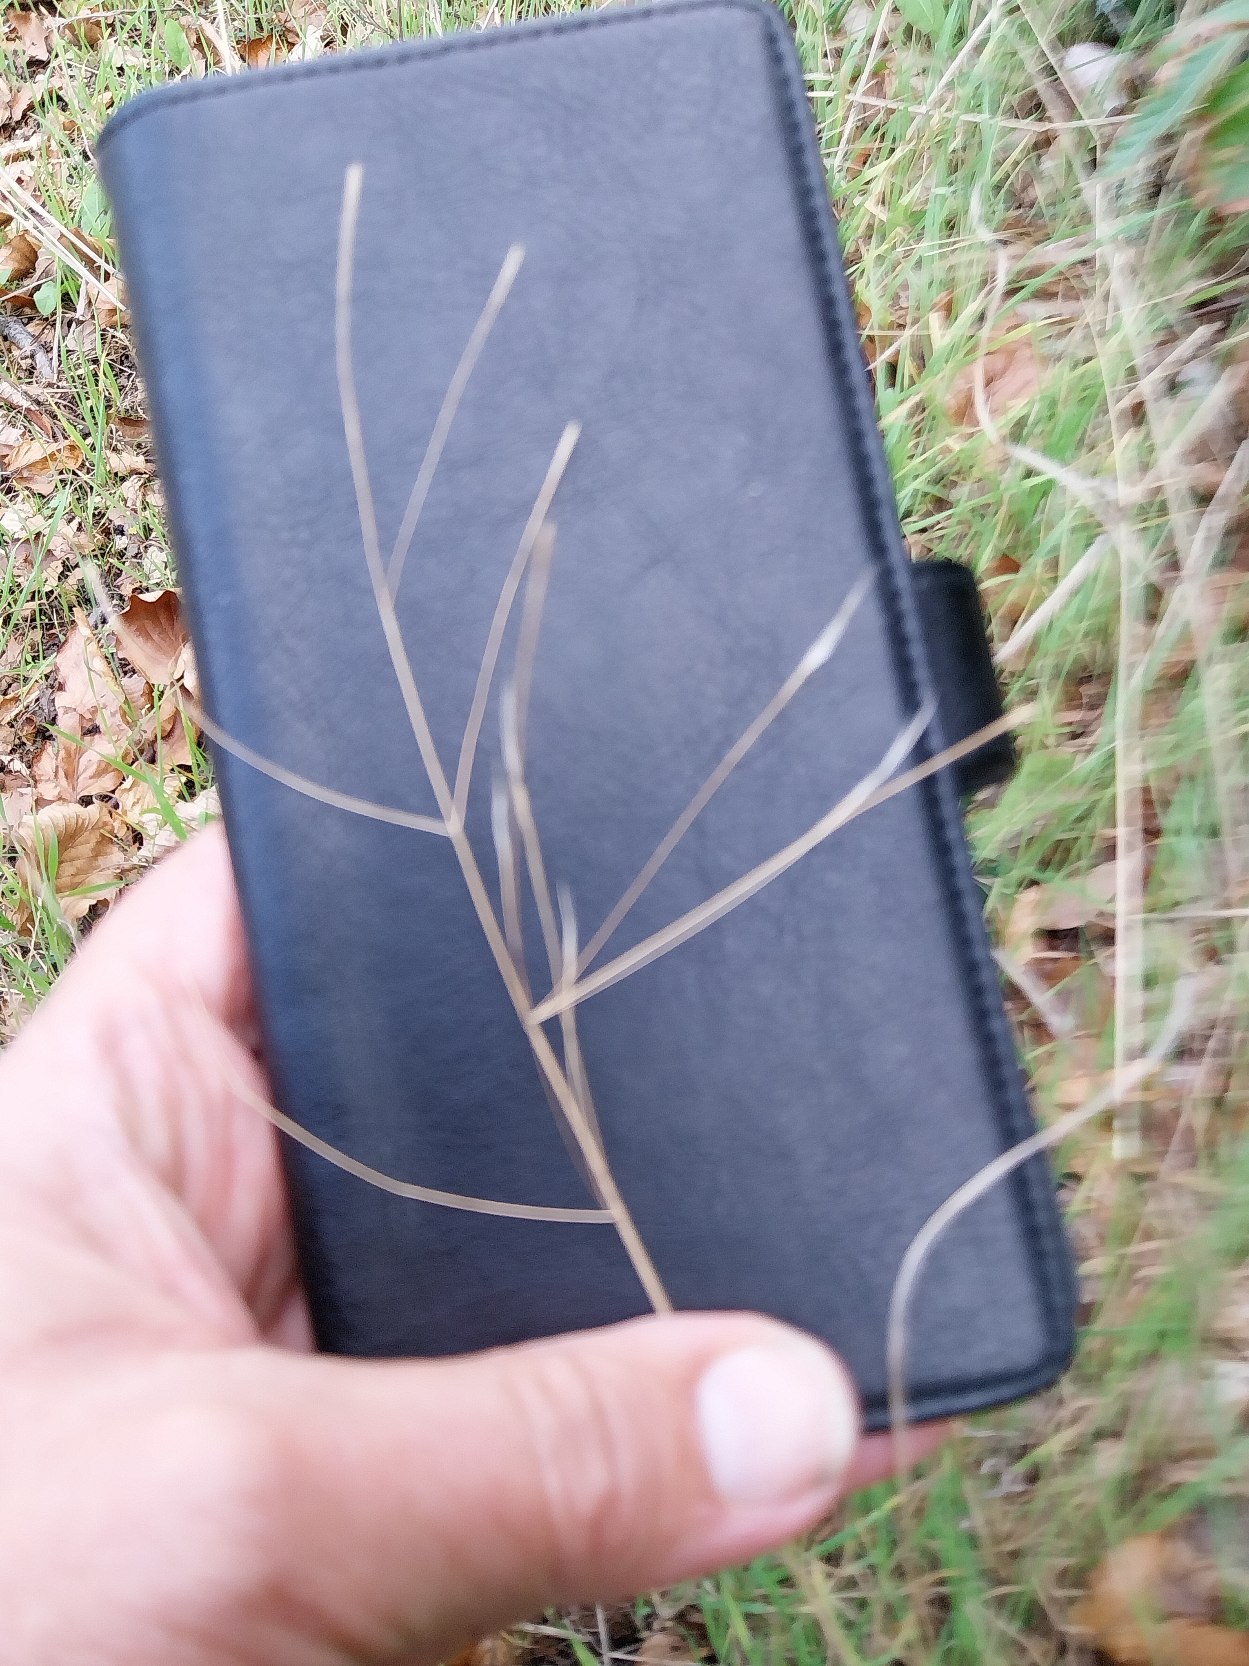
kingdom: Plantae
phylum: Tracheophyta
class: Liliopsida
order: Poales
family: Poaceae
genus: Bromus
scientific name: Bromus sterilis
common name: Gold hejre
